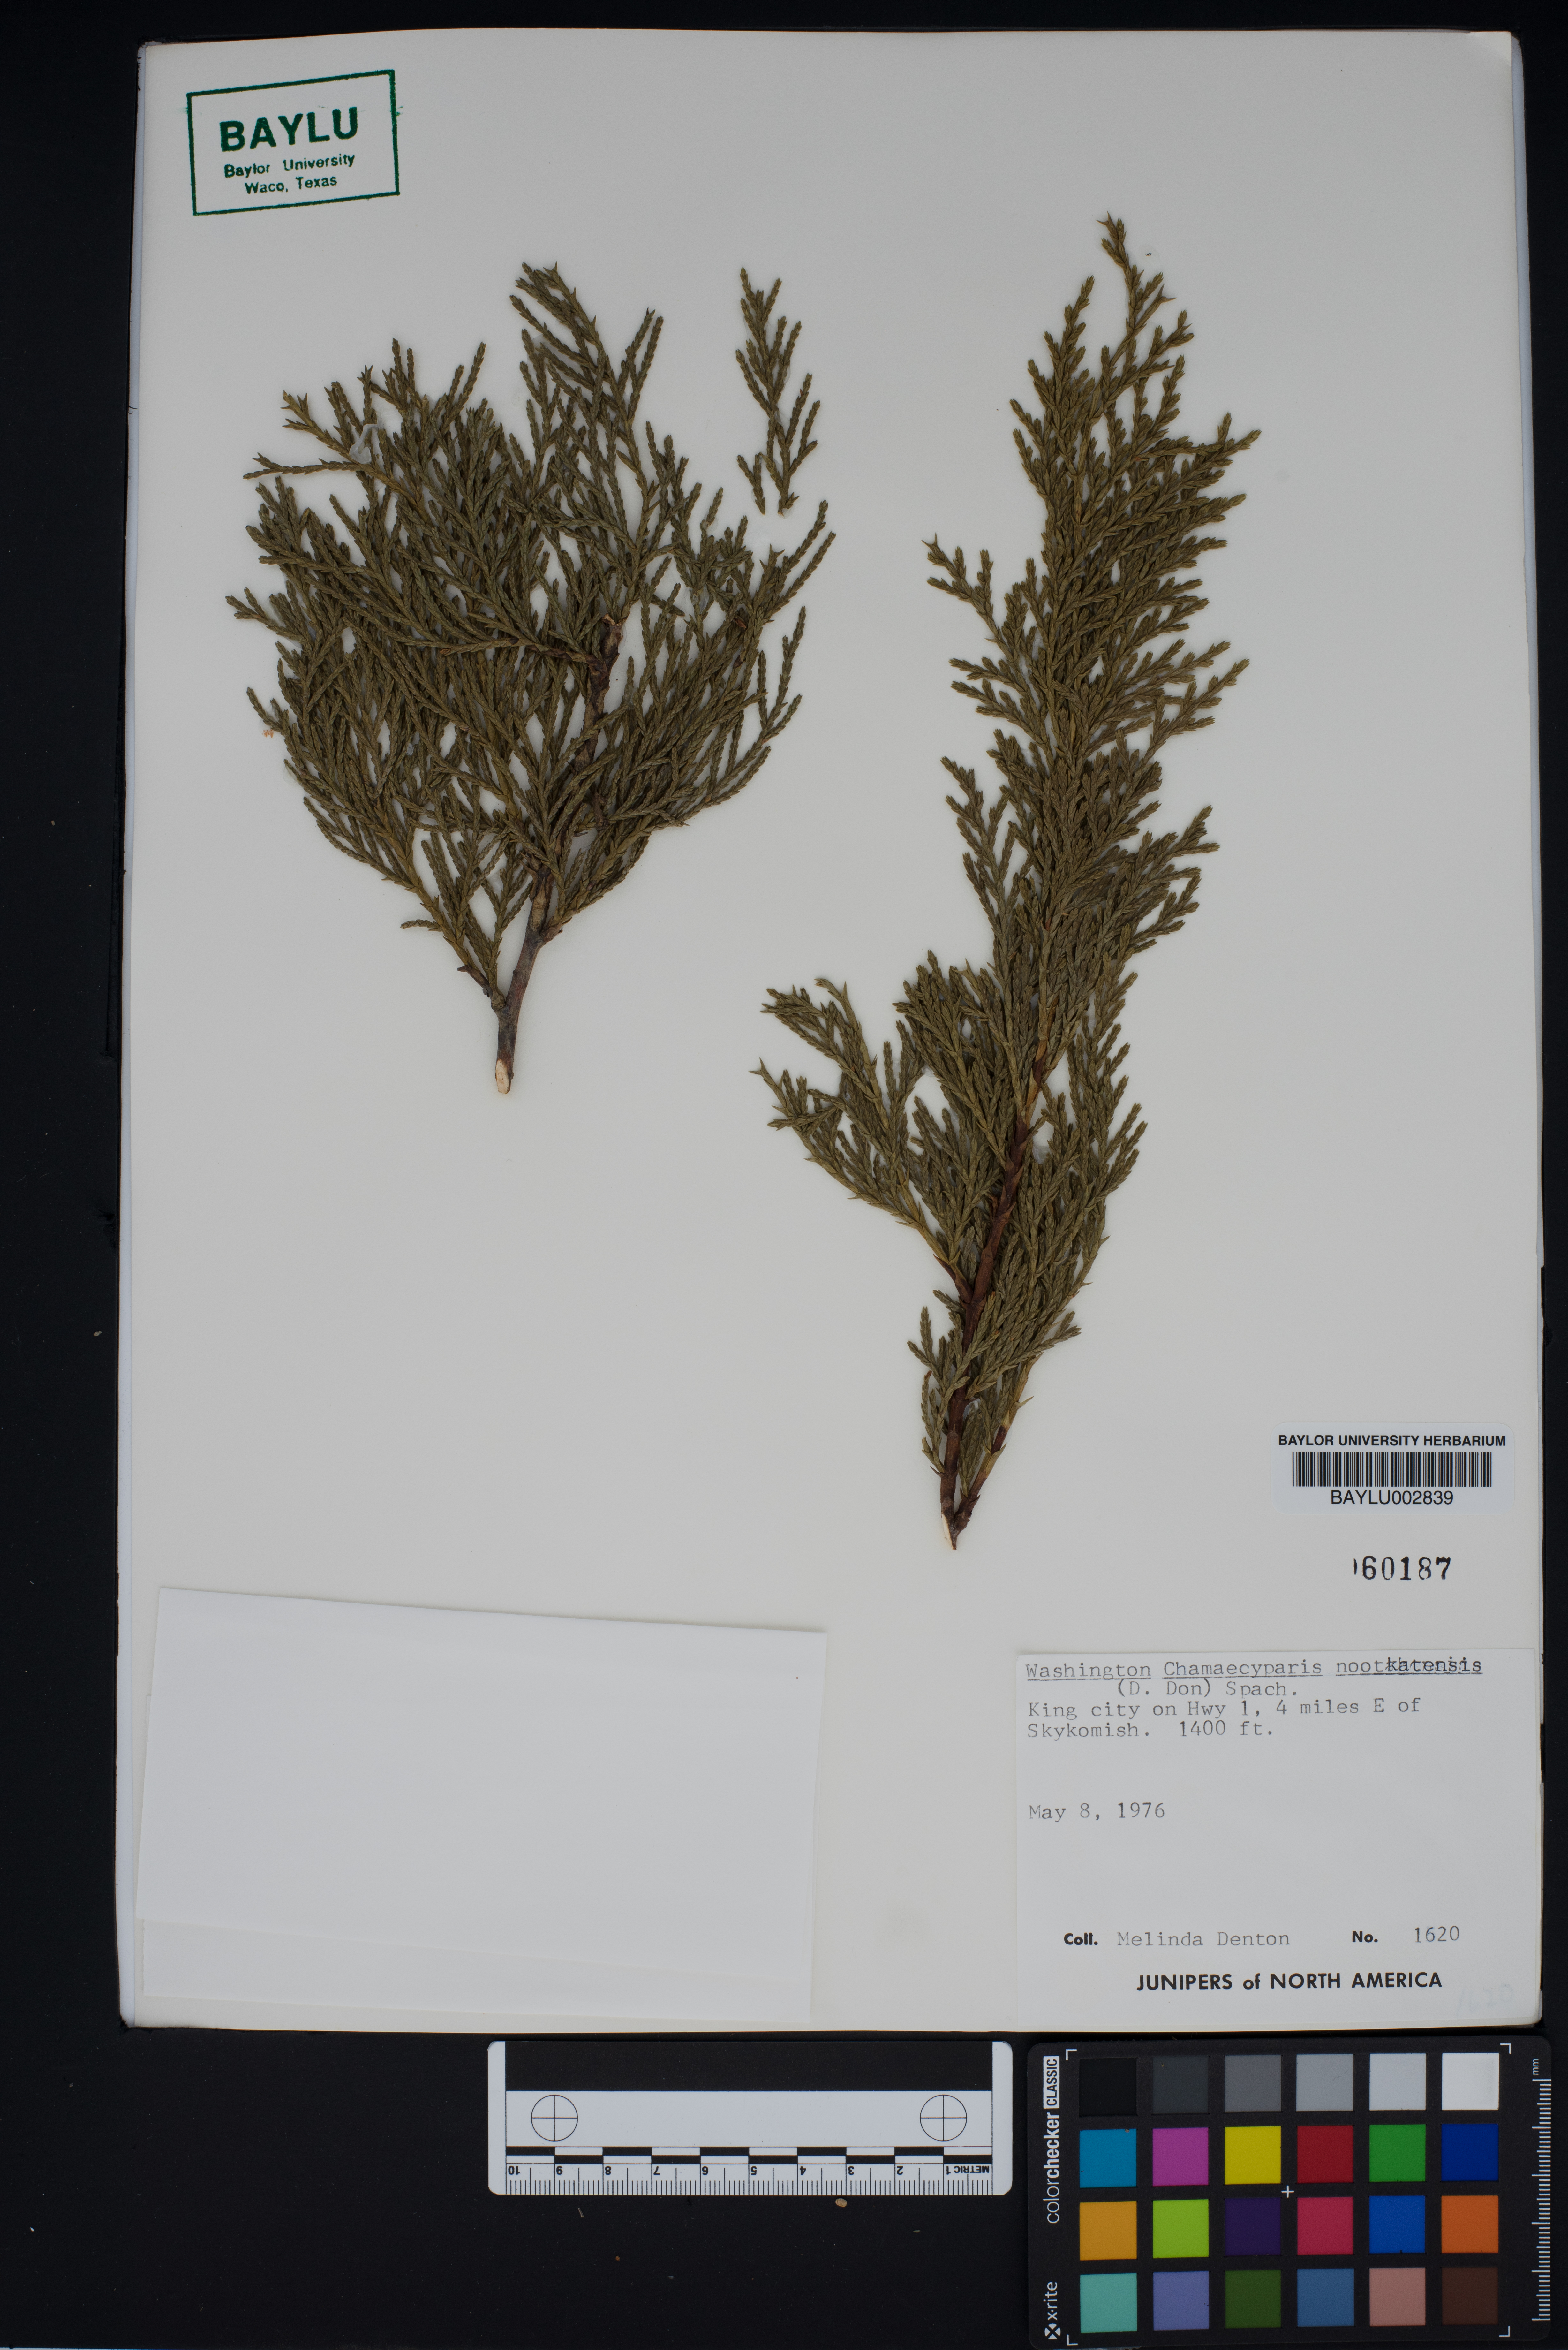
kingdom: Plantae
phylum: Tracheophyta
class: Pinopsida
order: Pinales
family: Cupressaceae
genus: Xanthocyparis
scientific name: Xanthocyparis nootkatensis
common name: Nootka cypress
